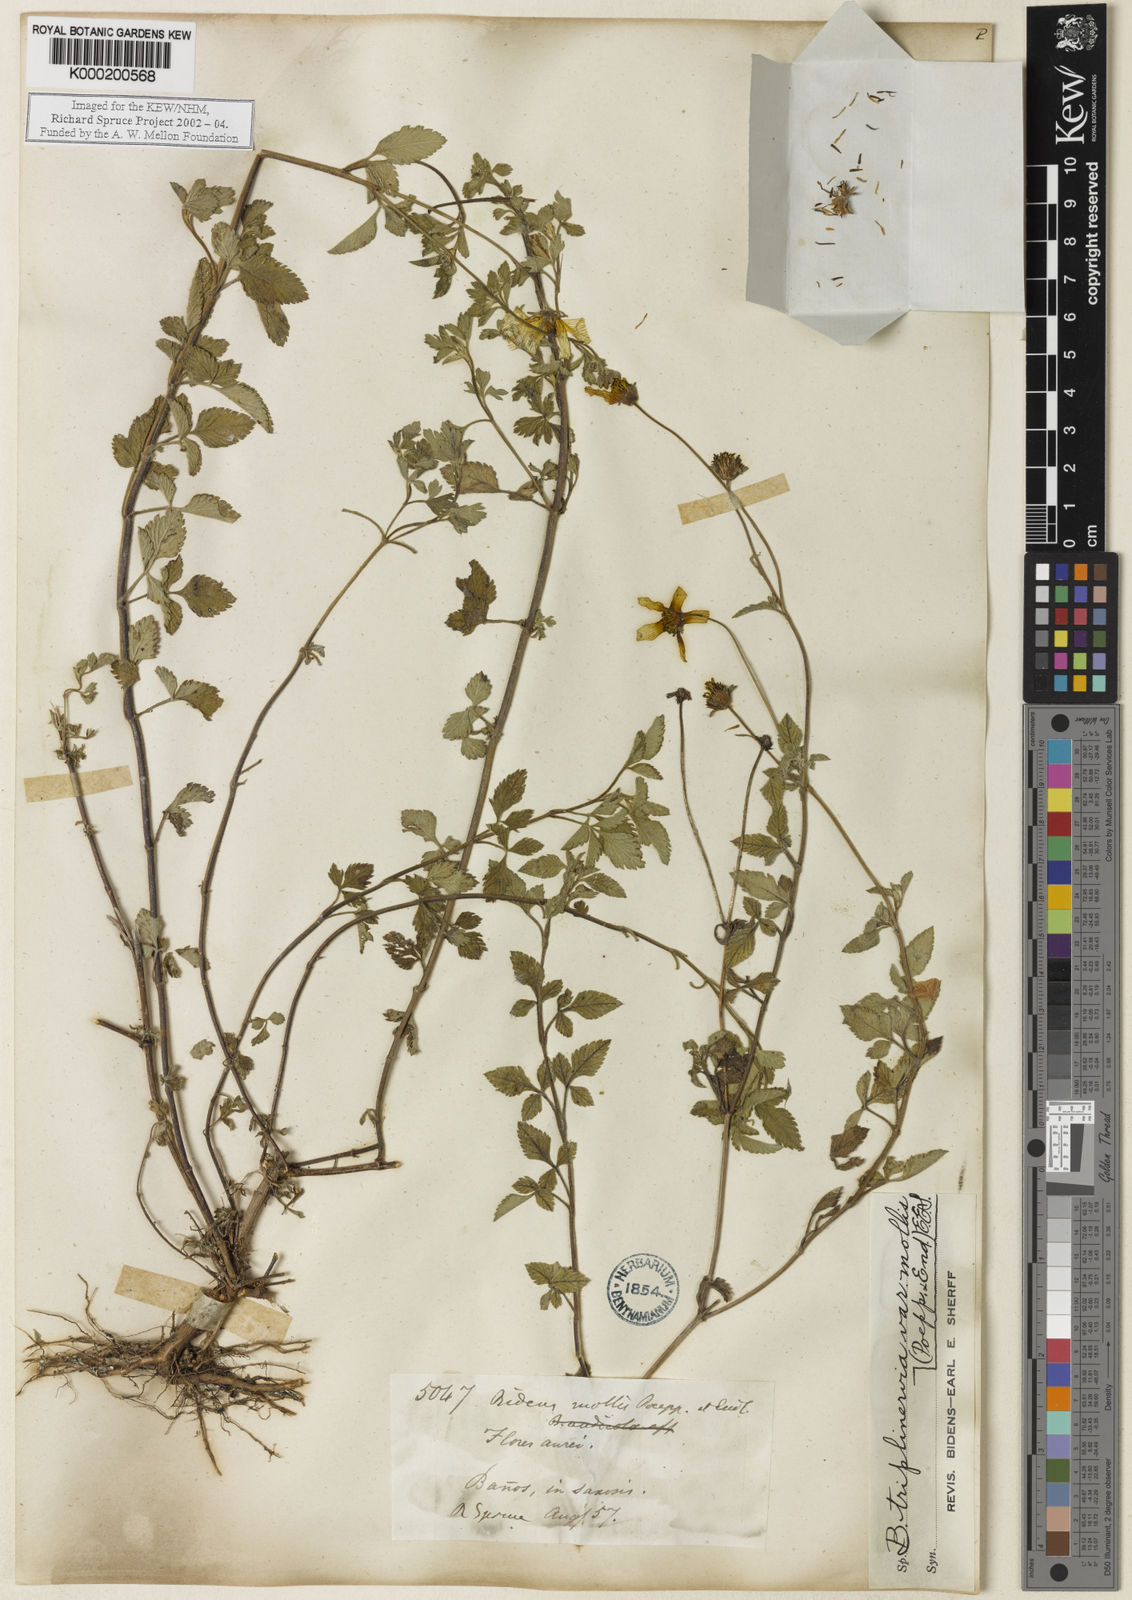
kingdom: Plantae
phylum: Tracheophyta
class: Magnoliopsida
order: Asterales
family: Asteraceae
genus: Bidens
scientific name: Bidens triplinervia
